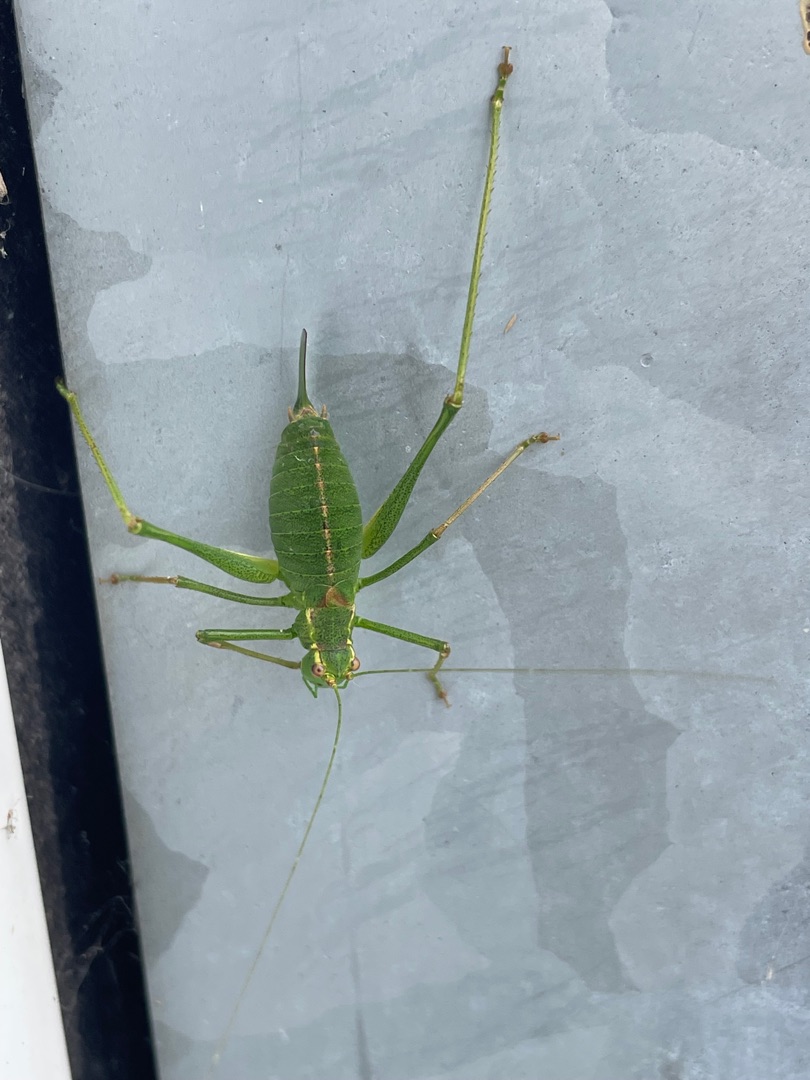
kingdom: Animalia
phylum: Arthropoda
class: Insecta
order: Orthoptera
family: Tettigoniidae
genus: Leptophyes
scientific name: Leptophyes punctatissima
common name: Krumknivgræshoppe
